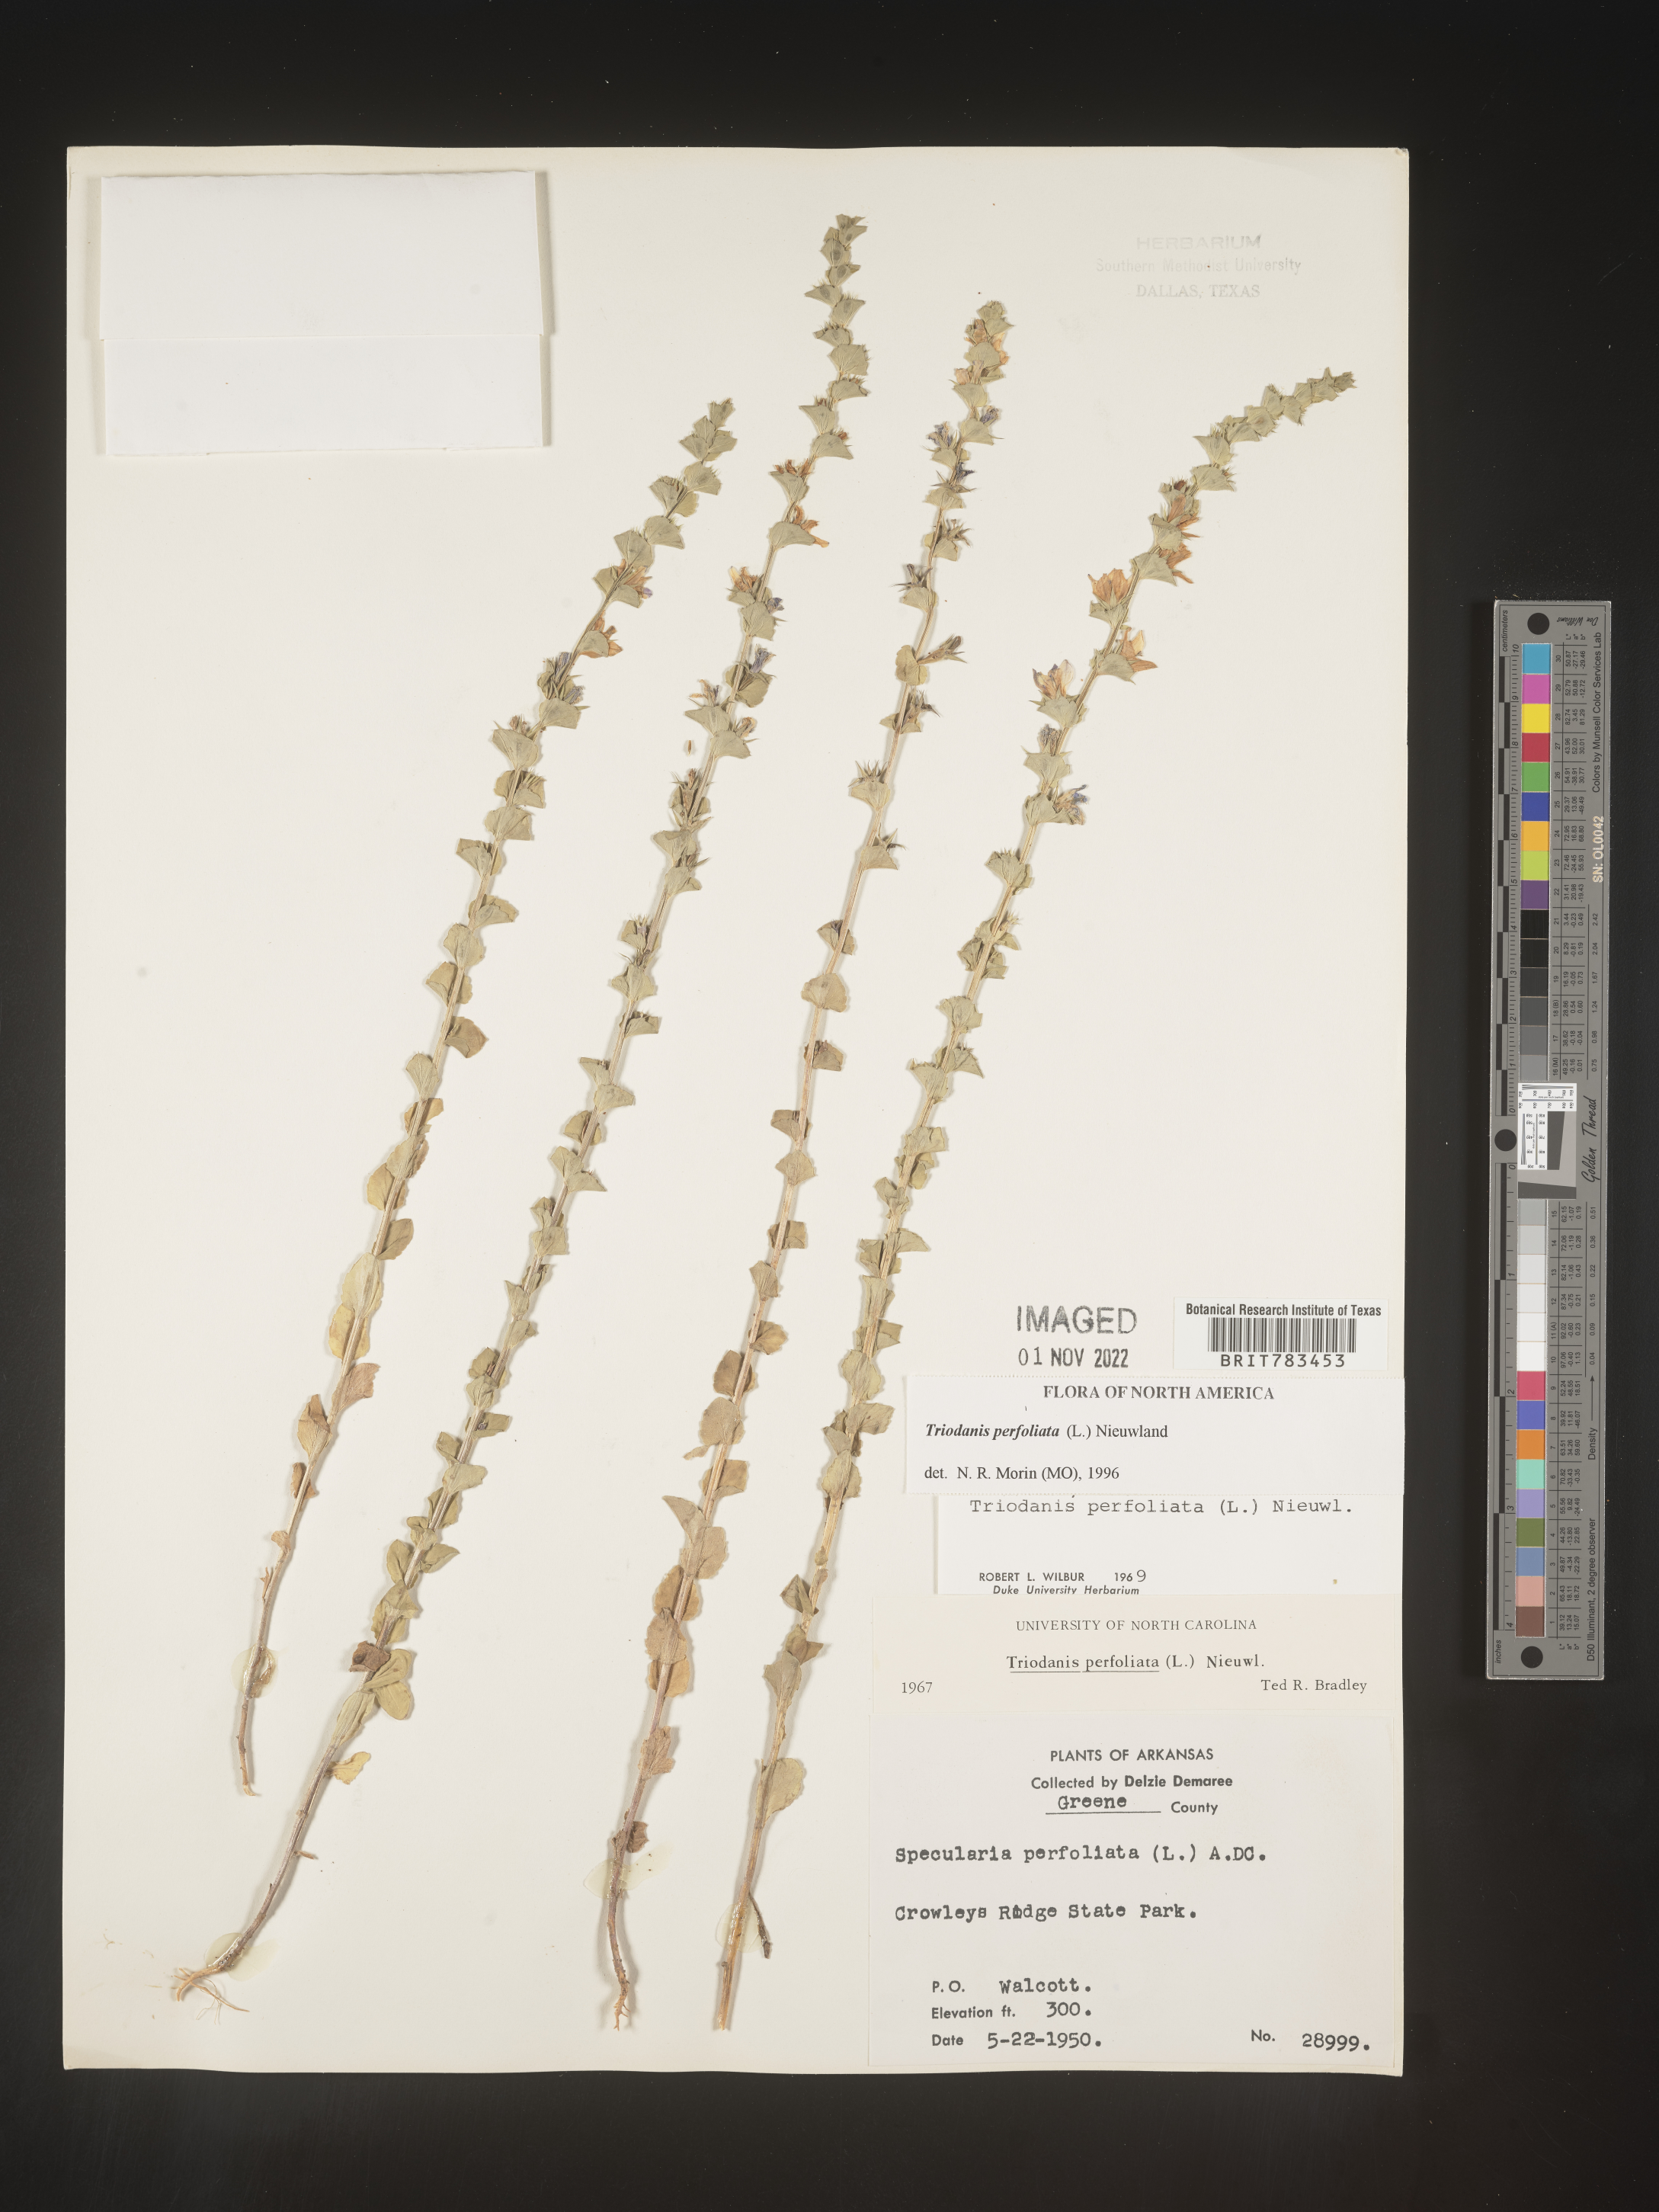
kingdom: Plantae
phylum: Tracheophyta
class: Magnoliopsida
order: Asterales
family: Campanulaceae
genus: Triodanis
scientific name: Triodanis perfoliata
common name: Clasping venus' looking-glass
